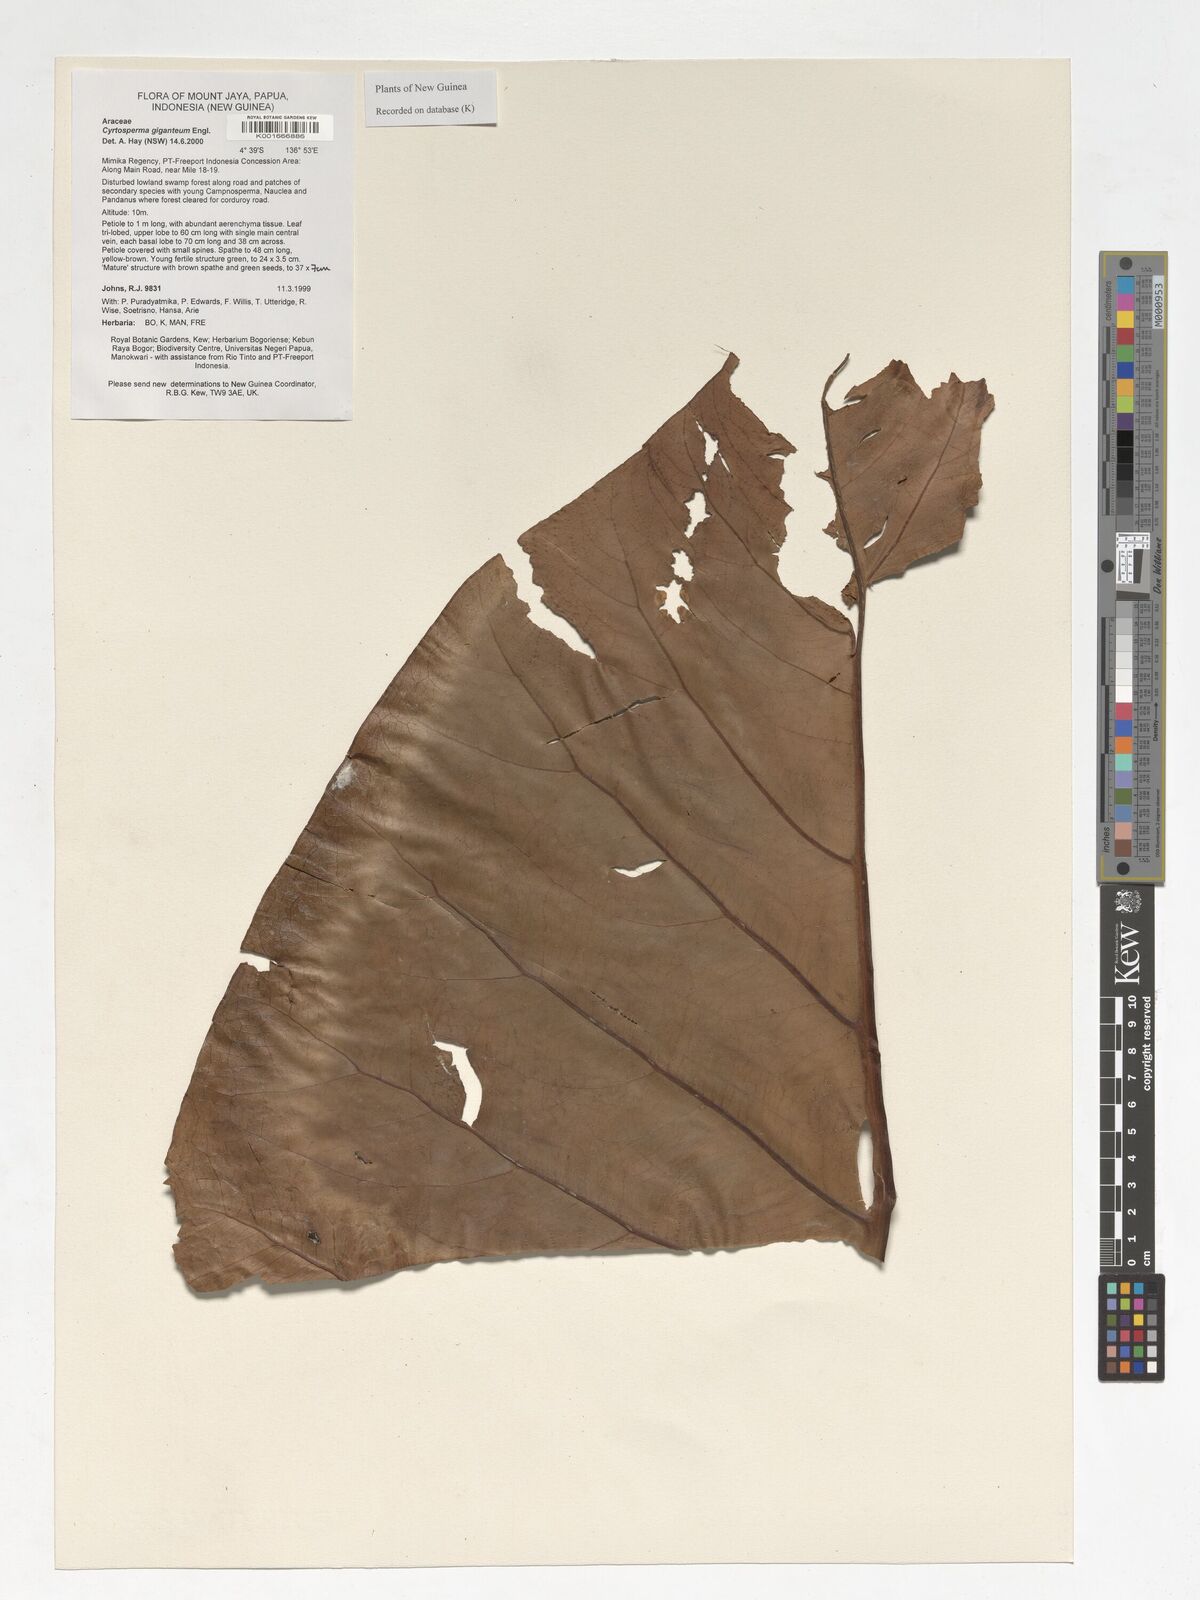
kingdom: Plantae
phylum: Tracheophyta
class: Liliopsida
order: Alismatales
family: Araceae
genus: Cyrtosperma
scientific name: Cyrtosperma giganteum
